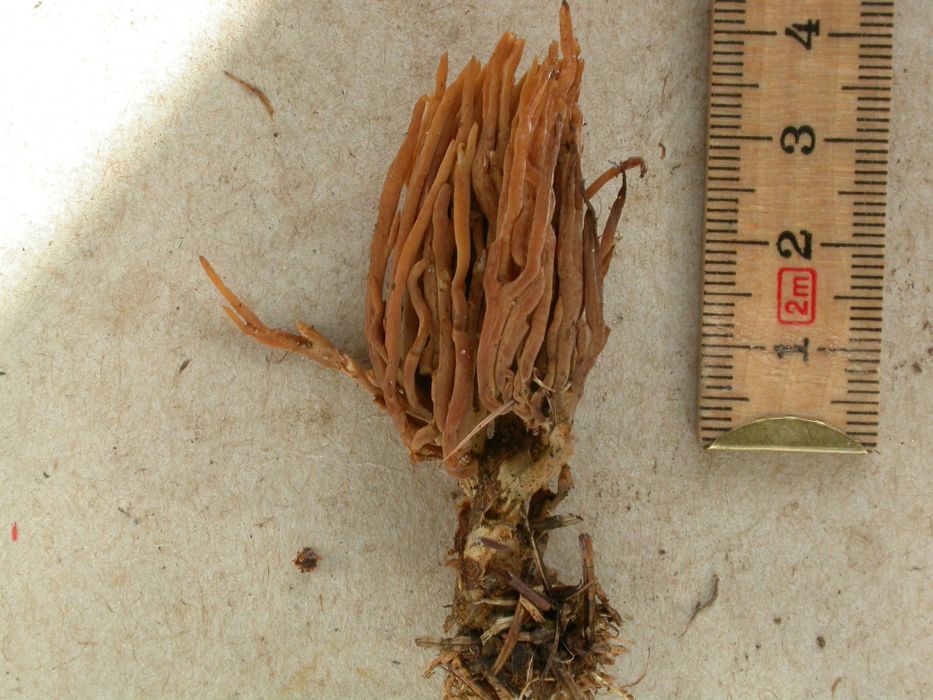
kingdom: Fungi
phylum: Basidiomycota
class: Agaricomycetes
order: Gomphales
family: Gomphaceae
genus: Phaeoclavulina
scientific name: Phaeoclavulina eumorpha
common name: gran-koralsvamp
